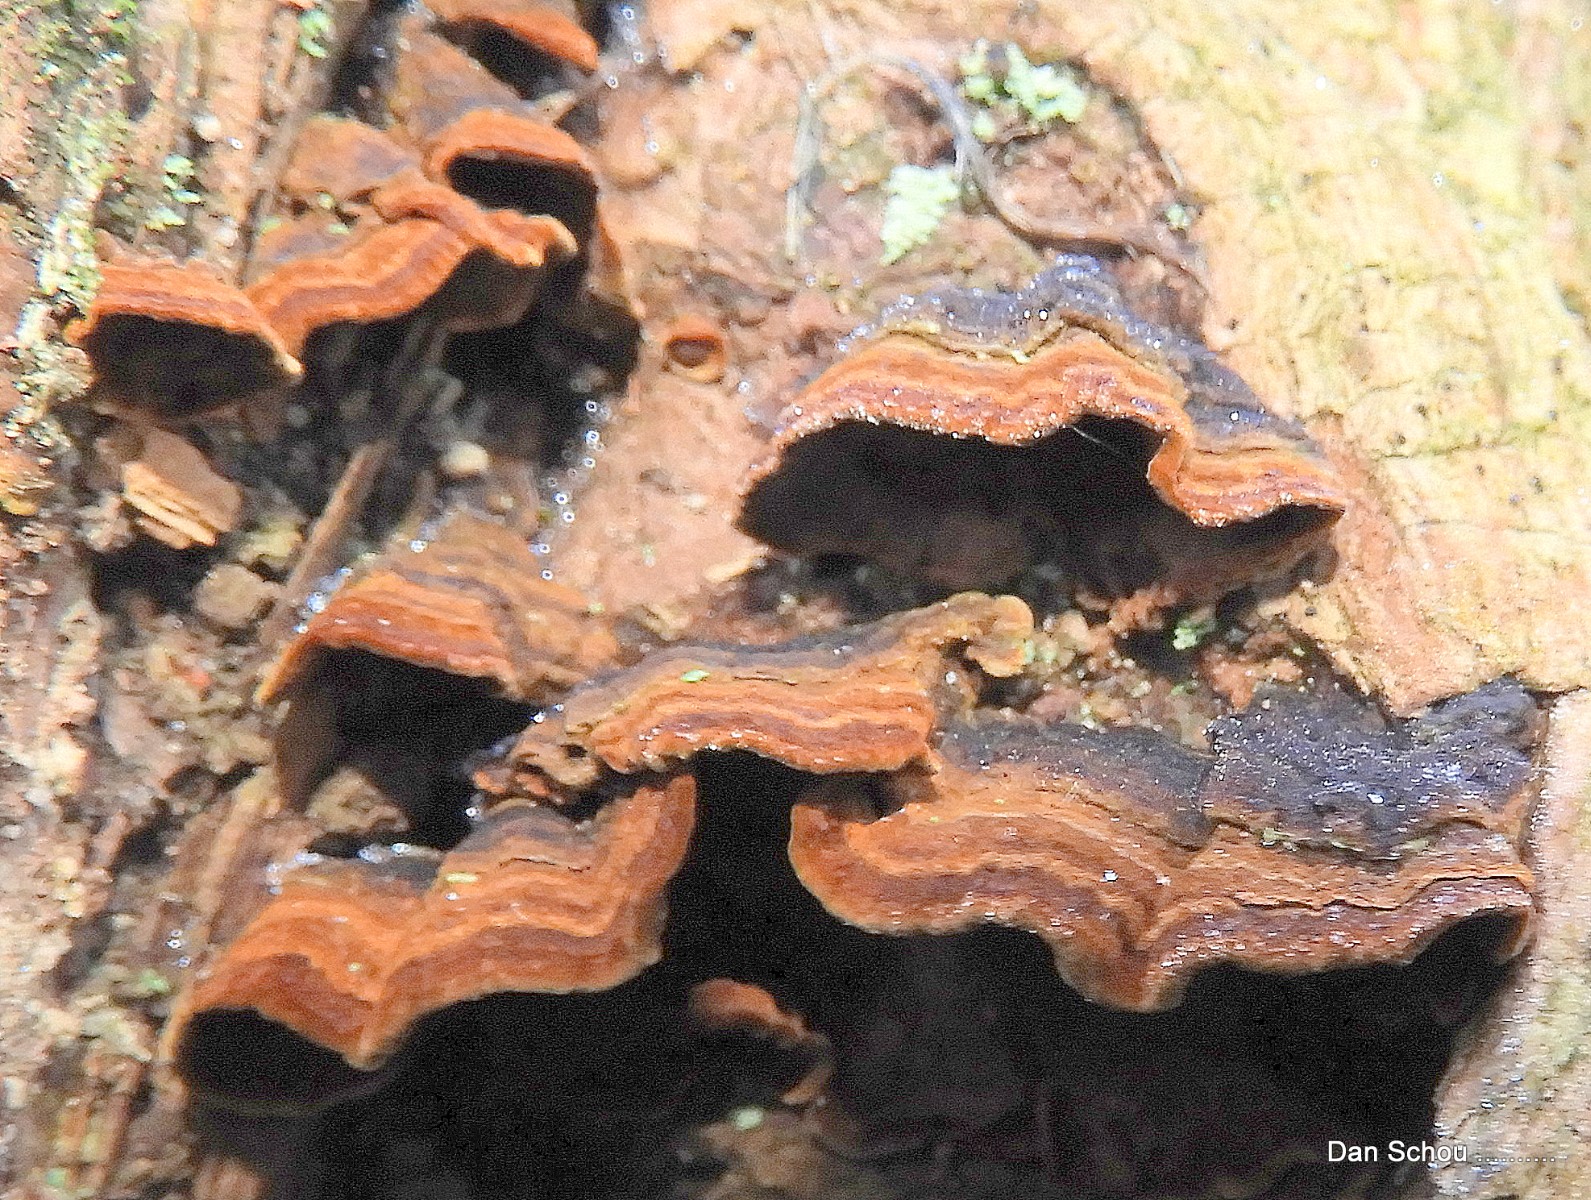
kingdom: Fungi
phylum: Basidiomycota
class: Agaricomycetes
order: Hymenochaetales
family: Hymenochaetaceae
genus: Hymenochaete
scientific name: Hymenochaete rubiginosa
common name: stiv ruslædersvamp
